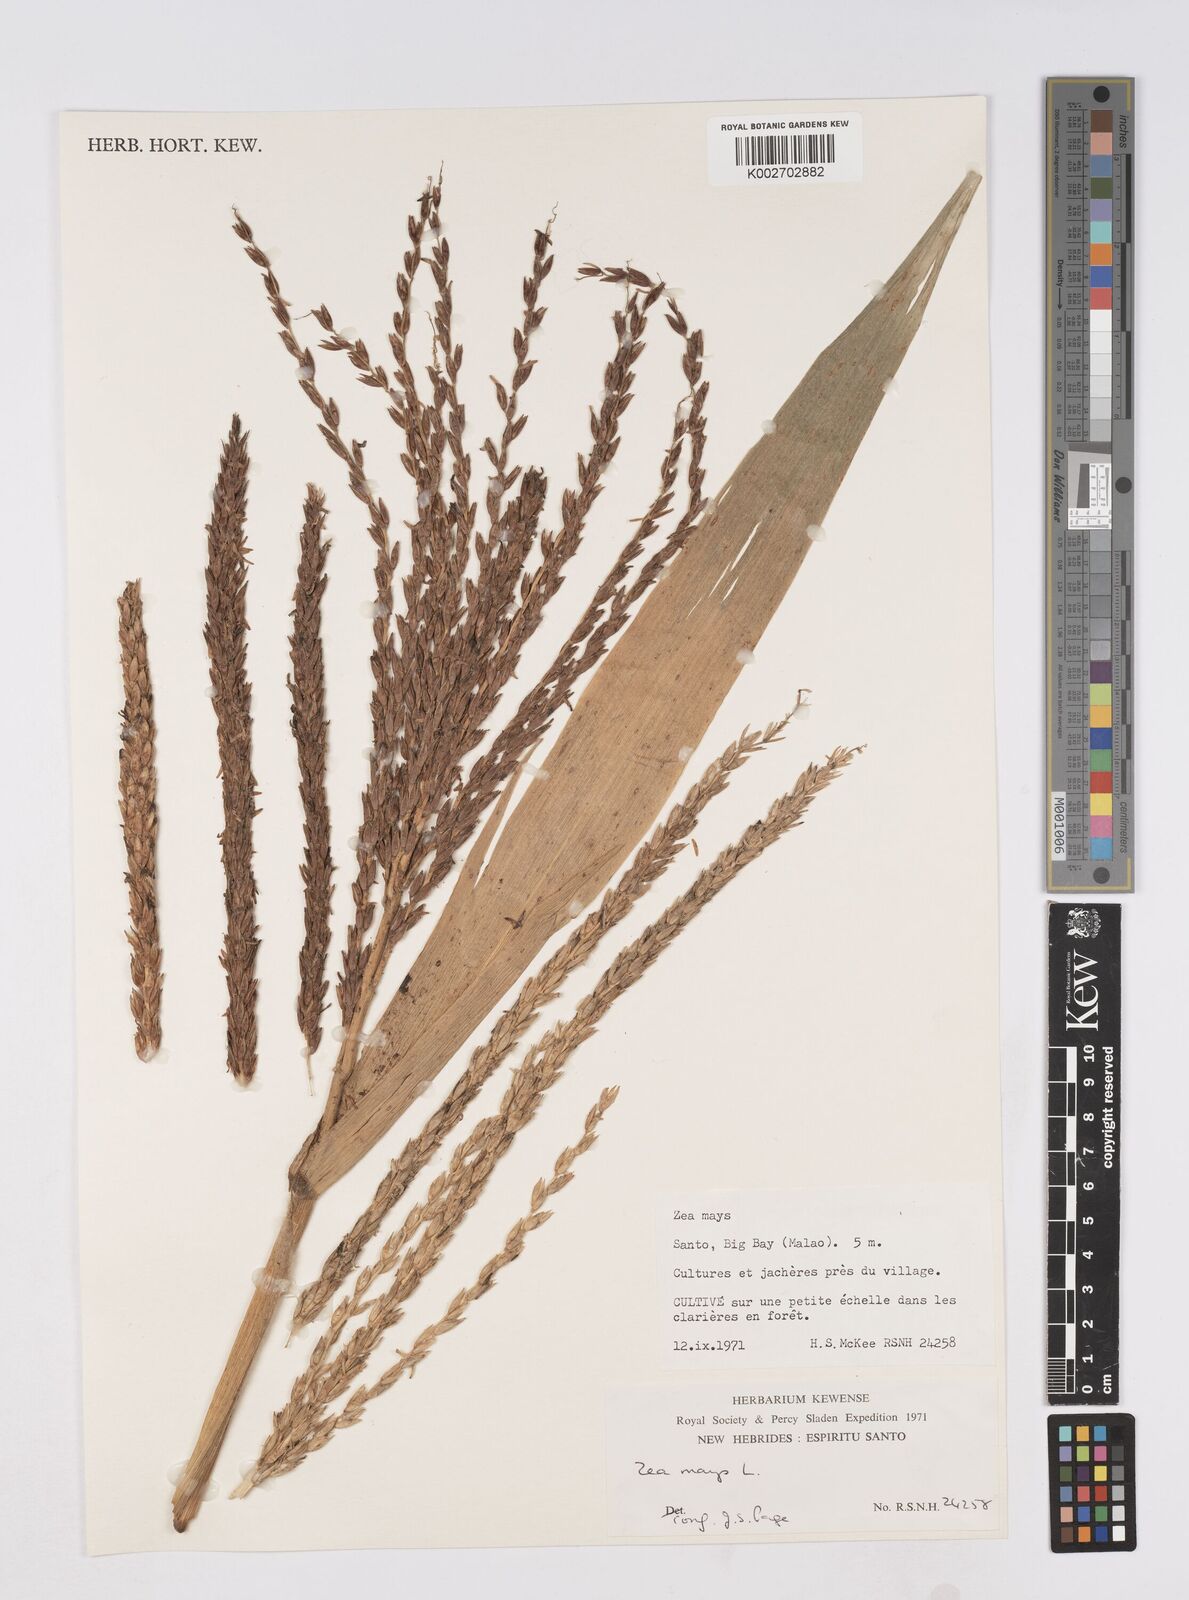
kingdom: Plantae
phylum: Tracheophyta
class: Liliopsida
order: Poales
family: Poaceae
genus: Zea
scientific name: Zea mays
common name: Maize
